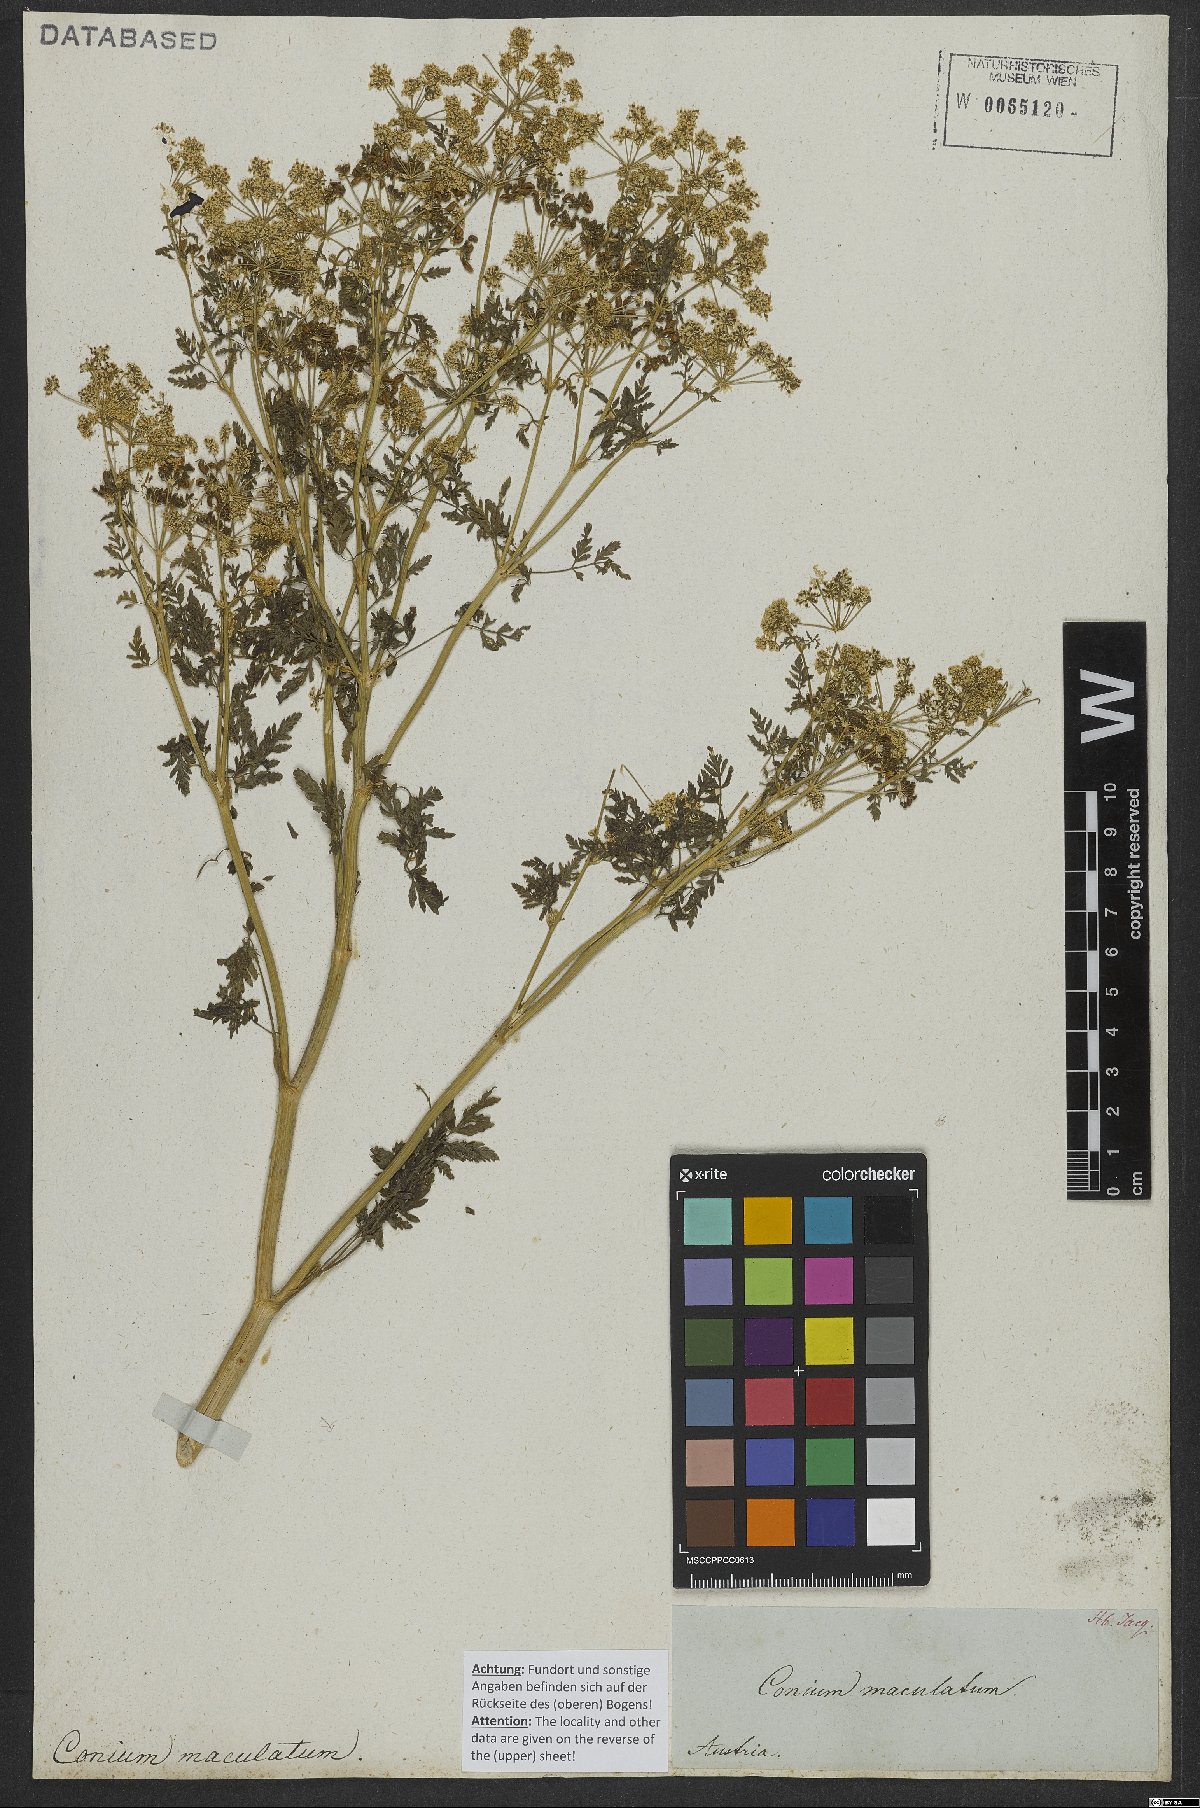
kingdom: Plantae
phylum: Tracheophyta
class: Magnoliopsida
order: Apiales
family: Apiaceae
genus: Conium
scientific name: Conium maculatum
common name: Hemlock
